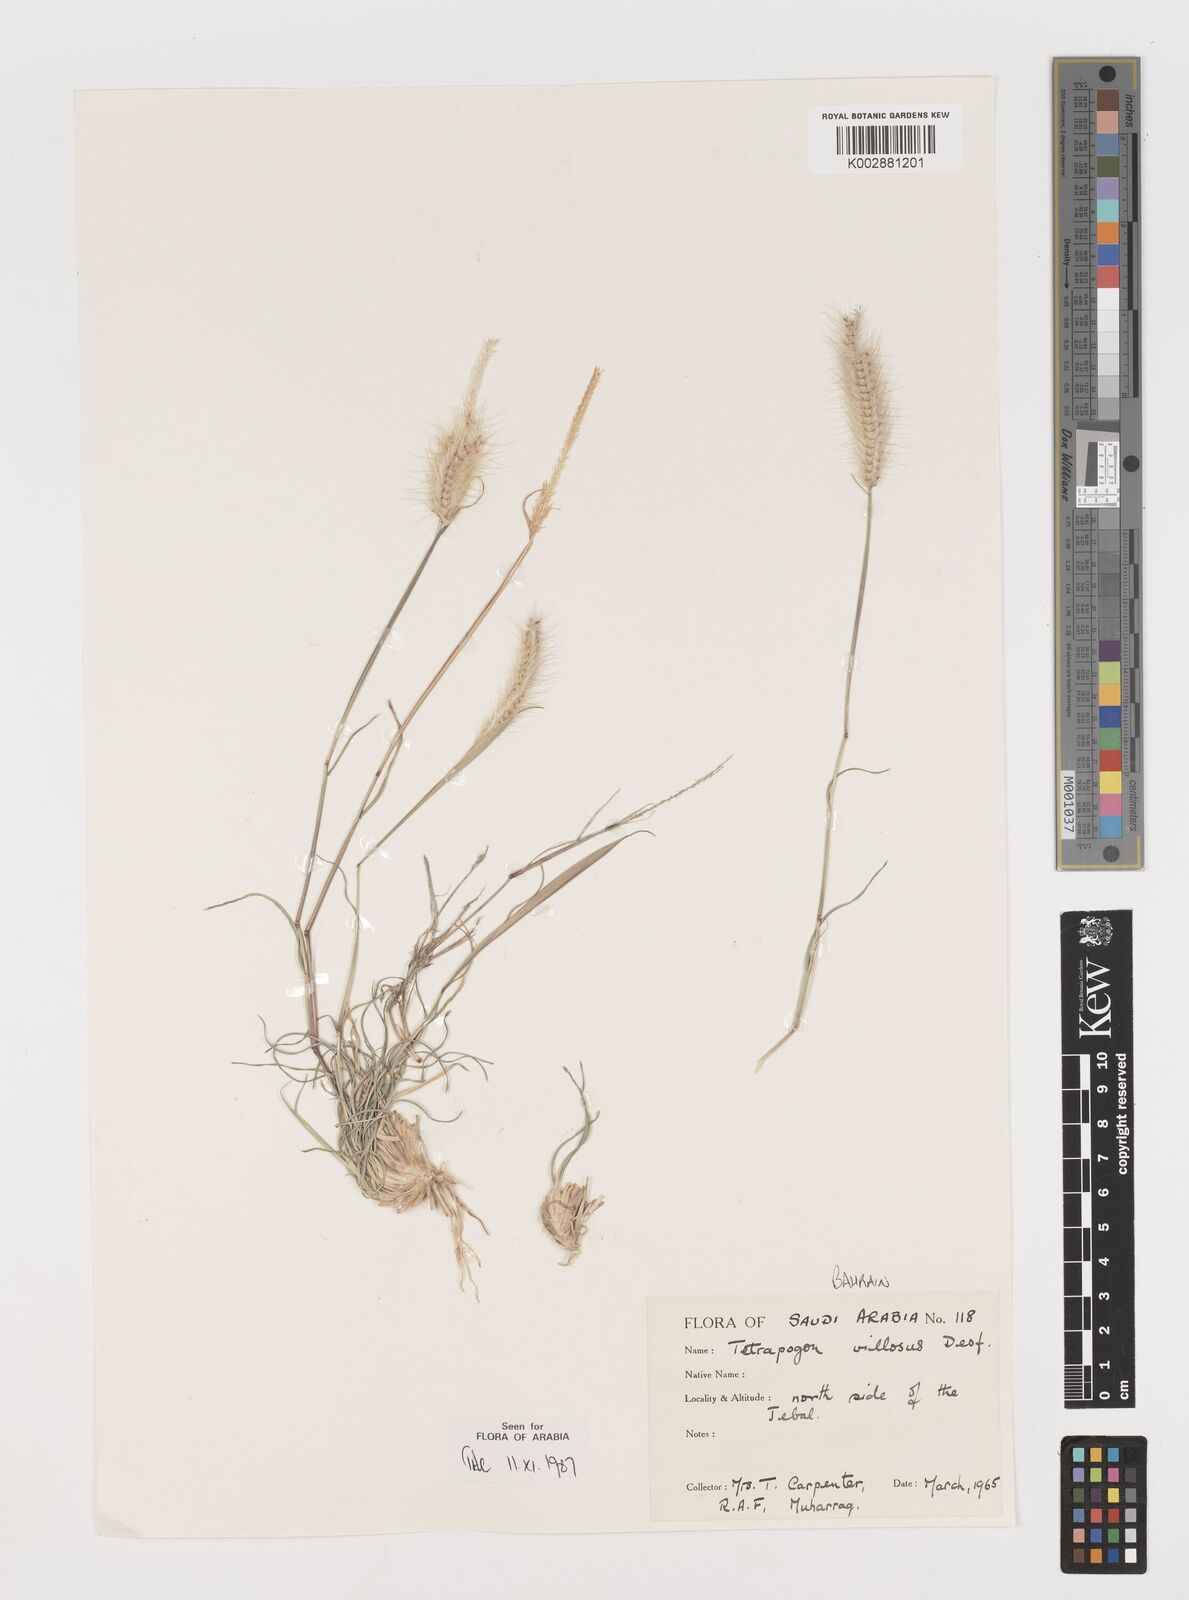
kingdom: Plantae
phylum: Tracheophyta
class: Liliopsida
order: Poales
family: Poaceae
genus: Tetrapogon
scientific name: Tetrapogon villosus
